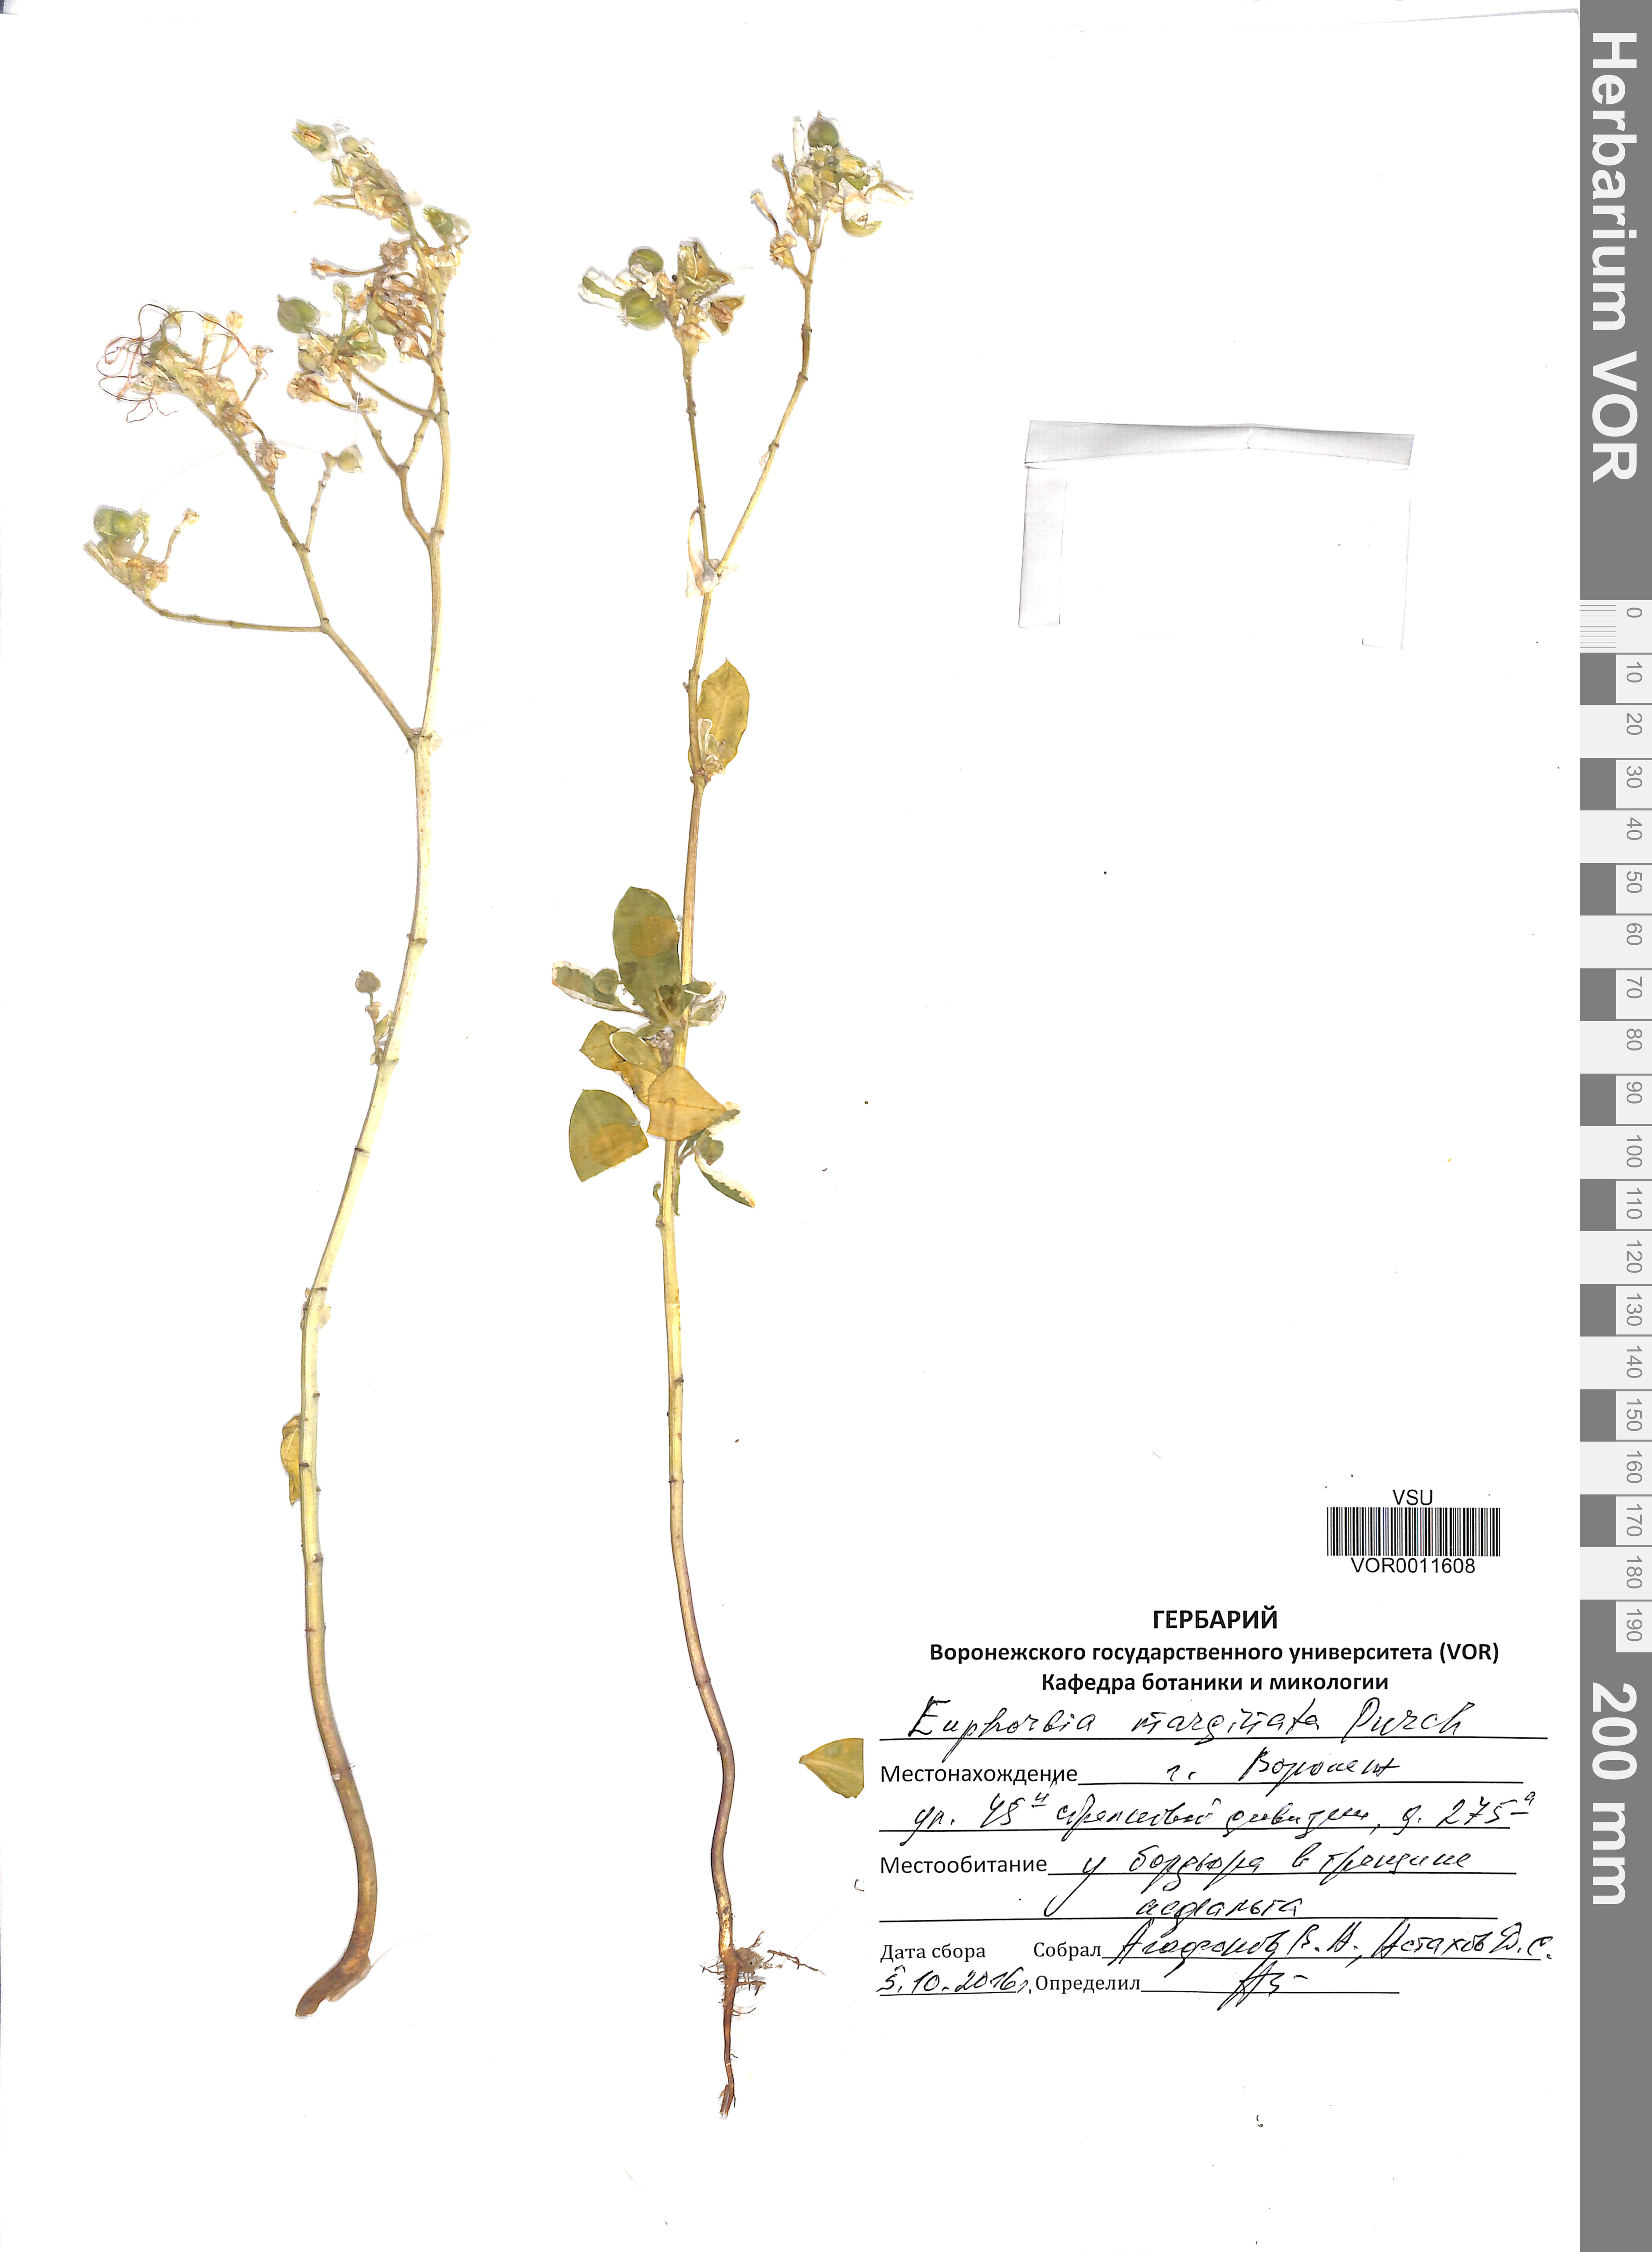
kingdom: Plantae
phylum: Tracheophyta
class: Magnoliopsida
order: Malpighiales
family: Euphorbiaceae
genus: Euphorbia
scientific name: Euphorbia marginata
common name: Ghostweed
